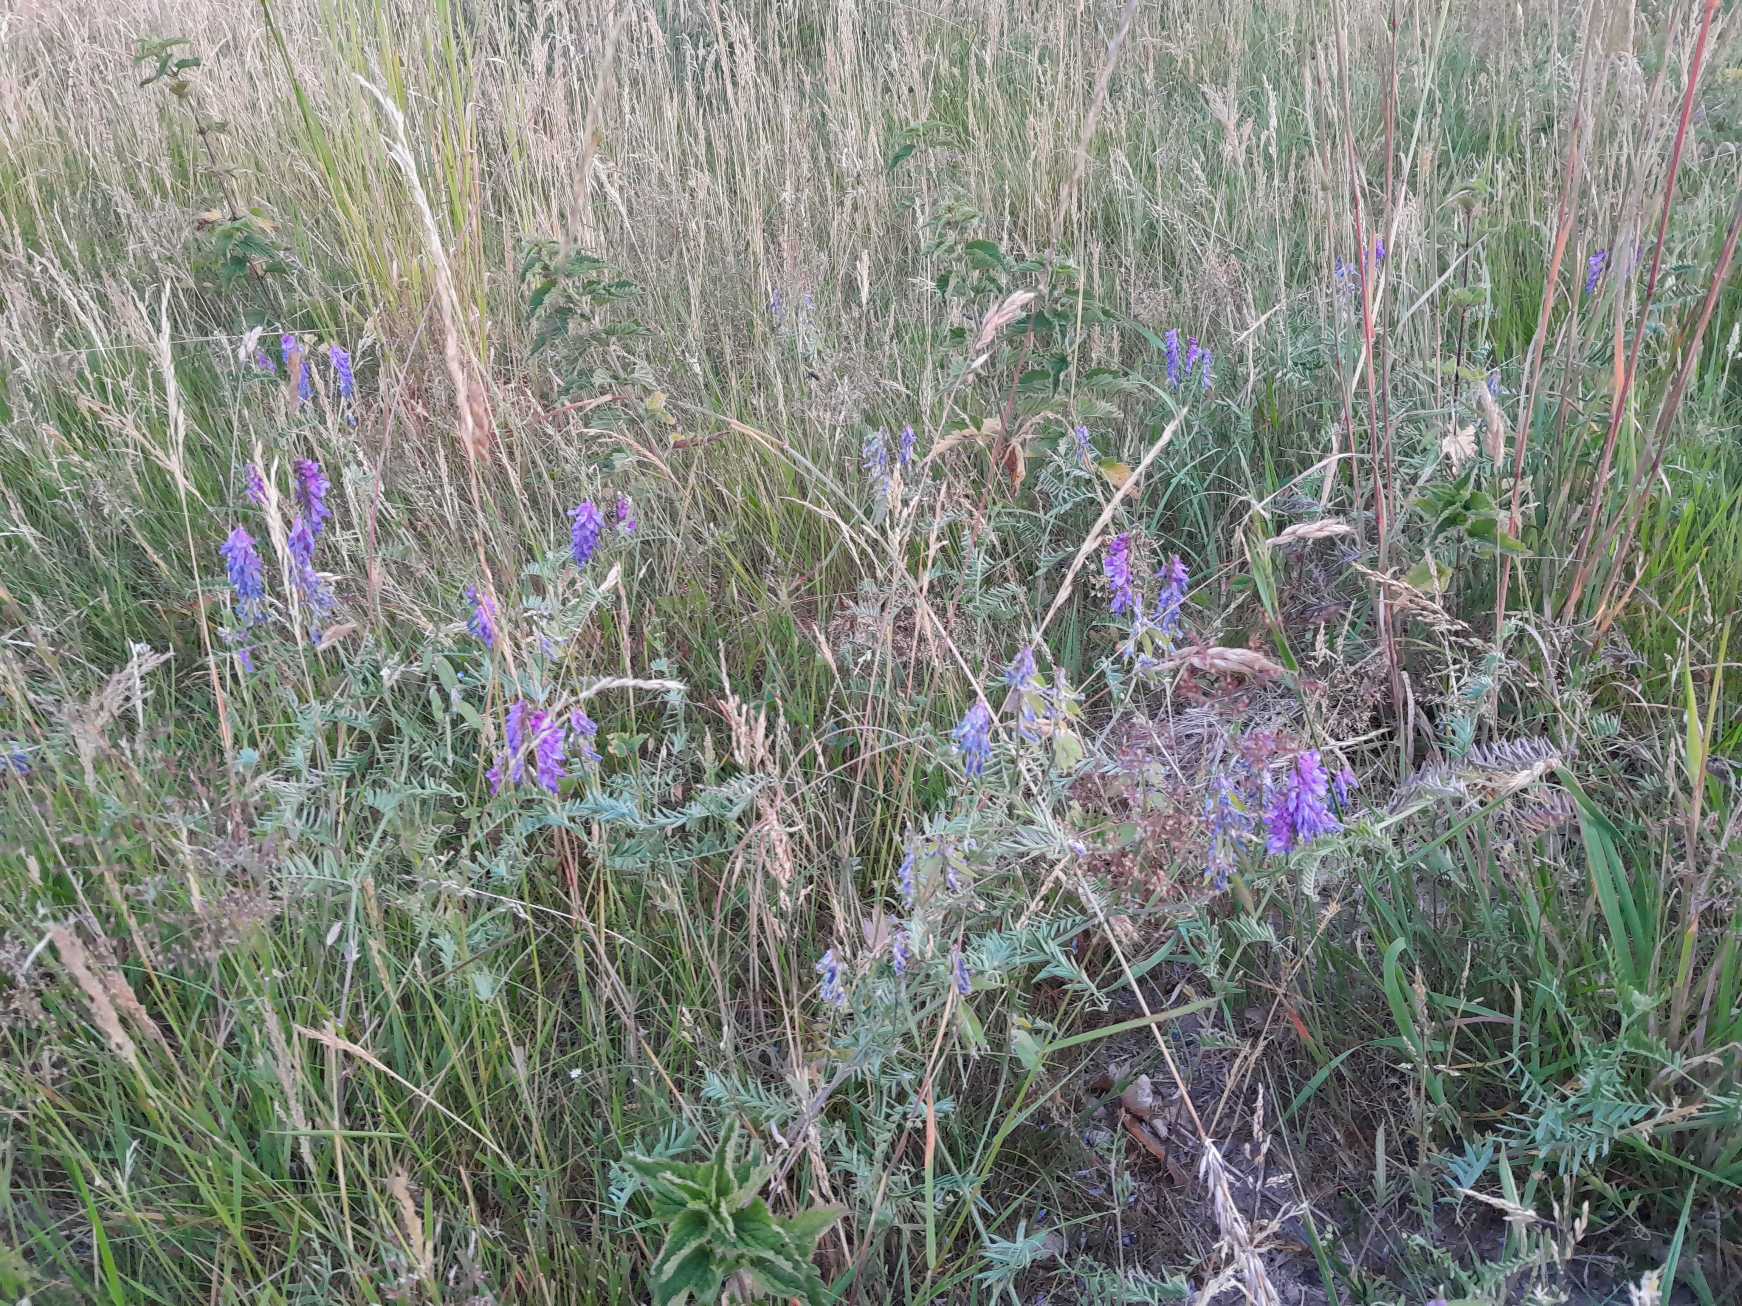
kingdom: Plantae
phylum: Tracheophyta
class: Magnoliopsida
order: Fabales
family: Fabaceae
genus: Vicia
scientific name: Vicia cracca
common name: Muse-vikke
